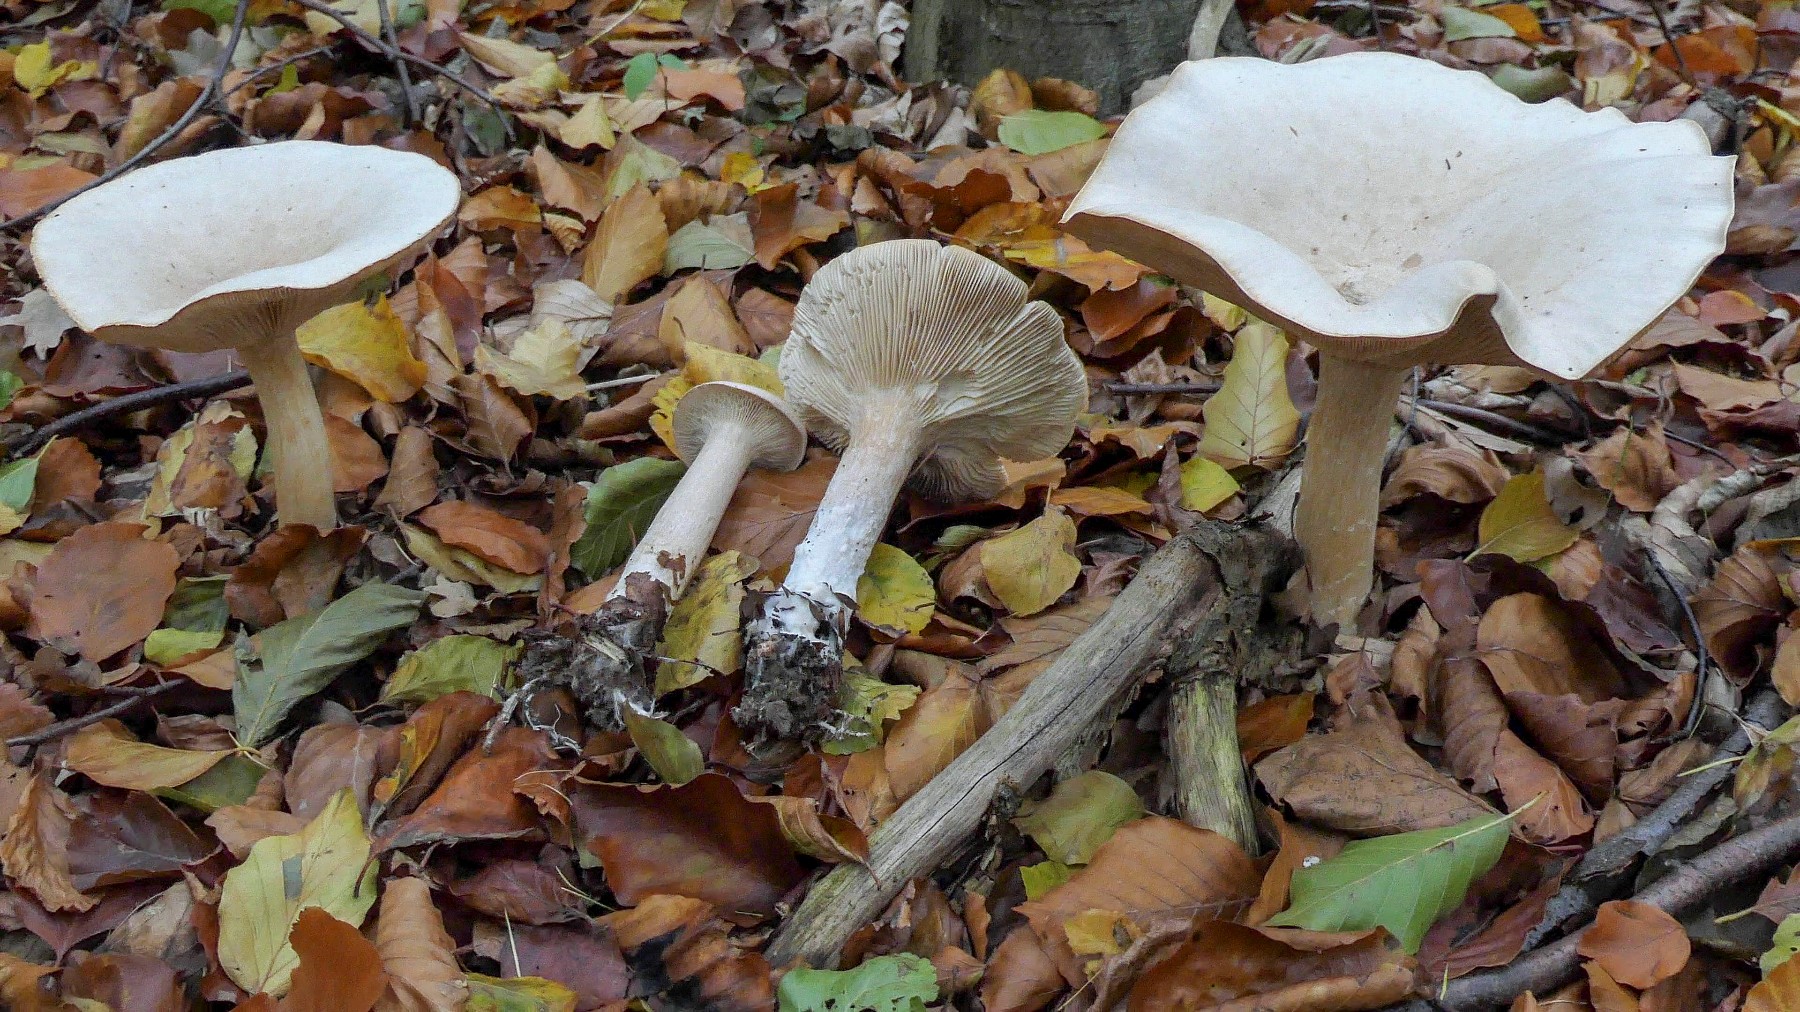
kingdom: Fungi
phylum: Basidiomycota
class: Agaricomycetes
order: Agaricales
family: Tricholomataceae
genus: Infundibulicybe
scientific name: Infundibulicybe geotropa
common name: stor tragthat
